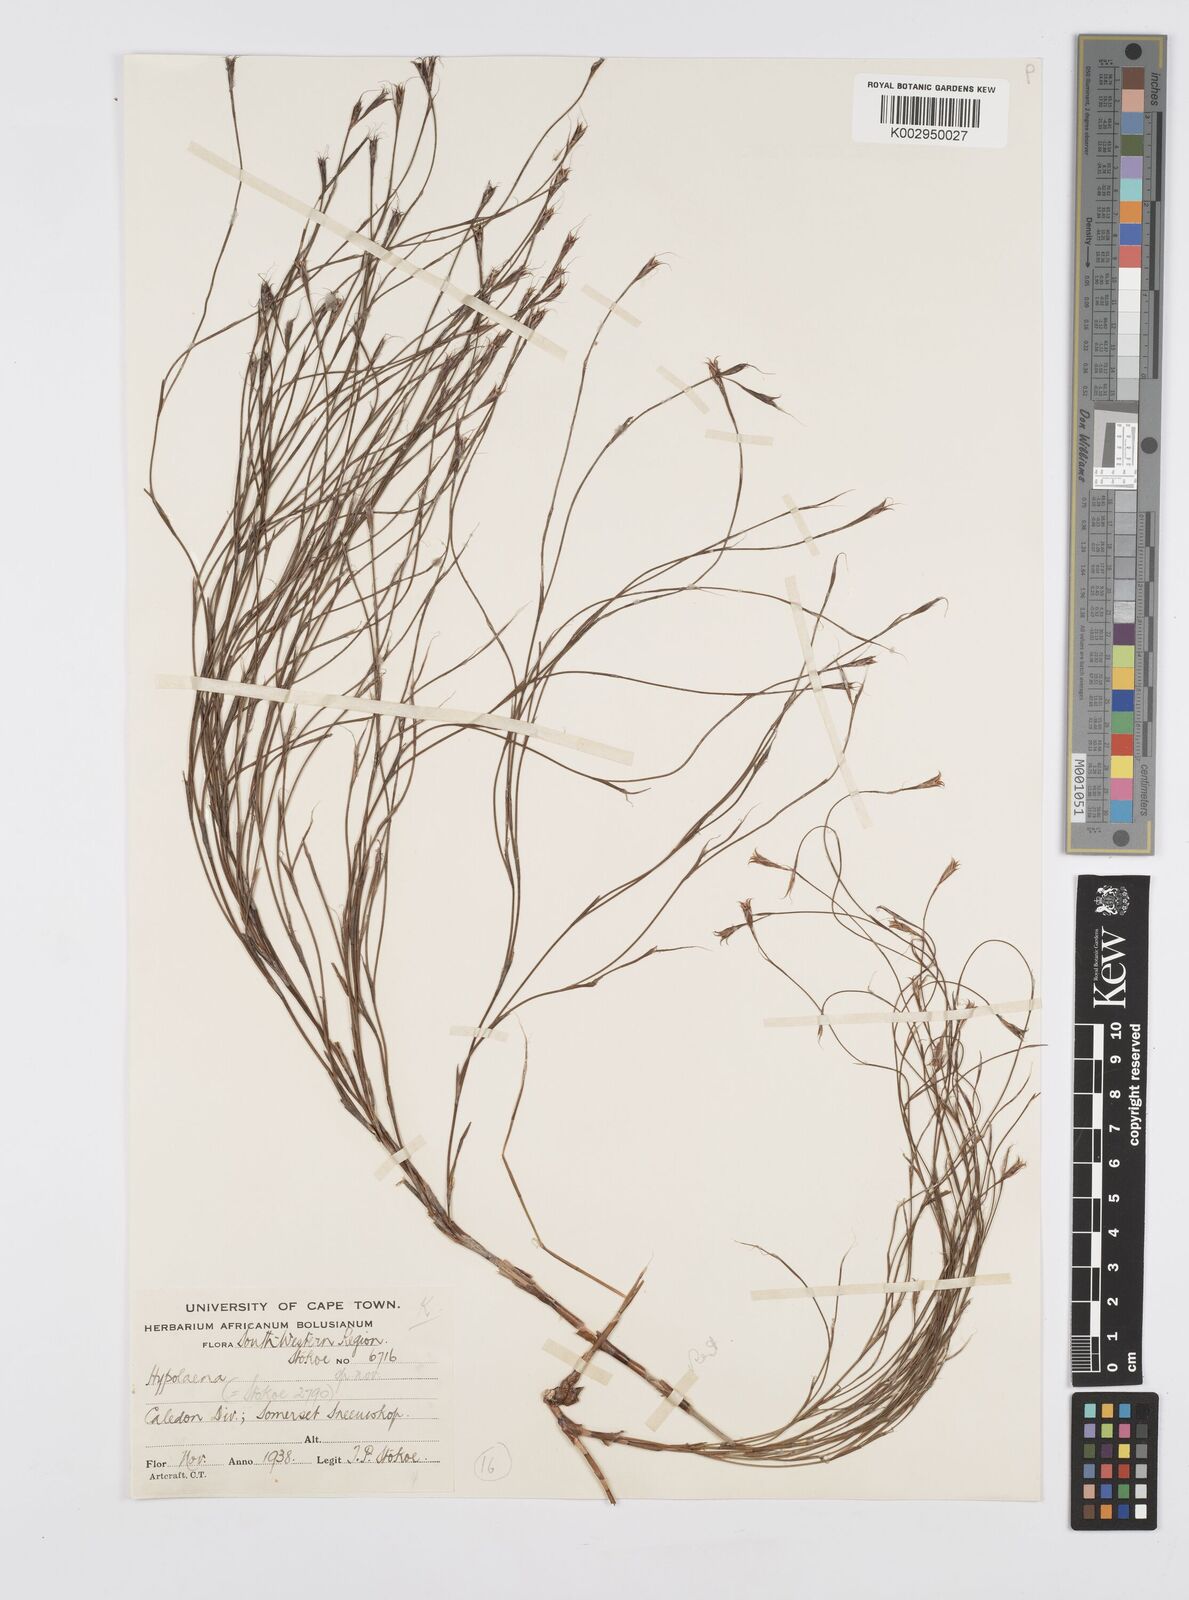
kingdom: Plantae
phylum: Tracheophyta
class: Liliopsida
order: Poales
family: Restionaceae
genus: Anthochortus
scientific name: Anthochortus
